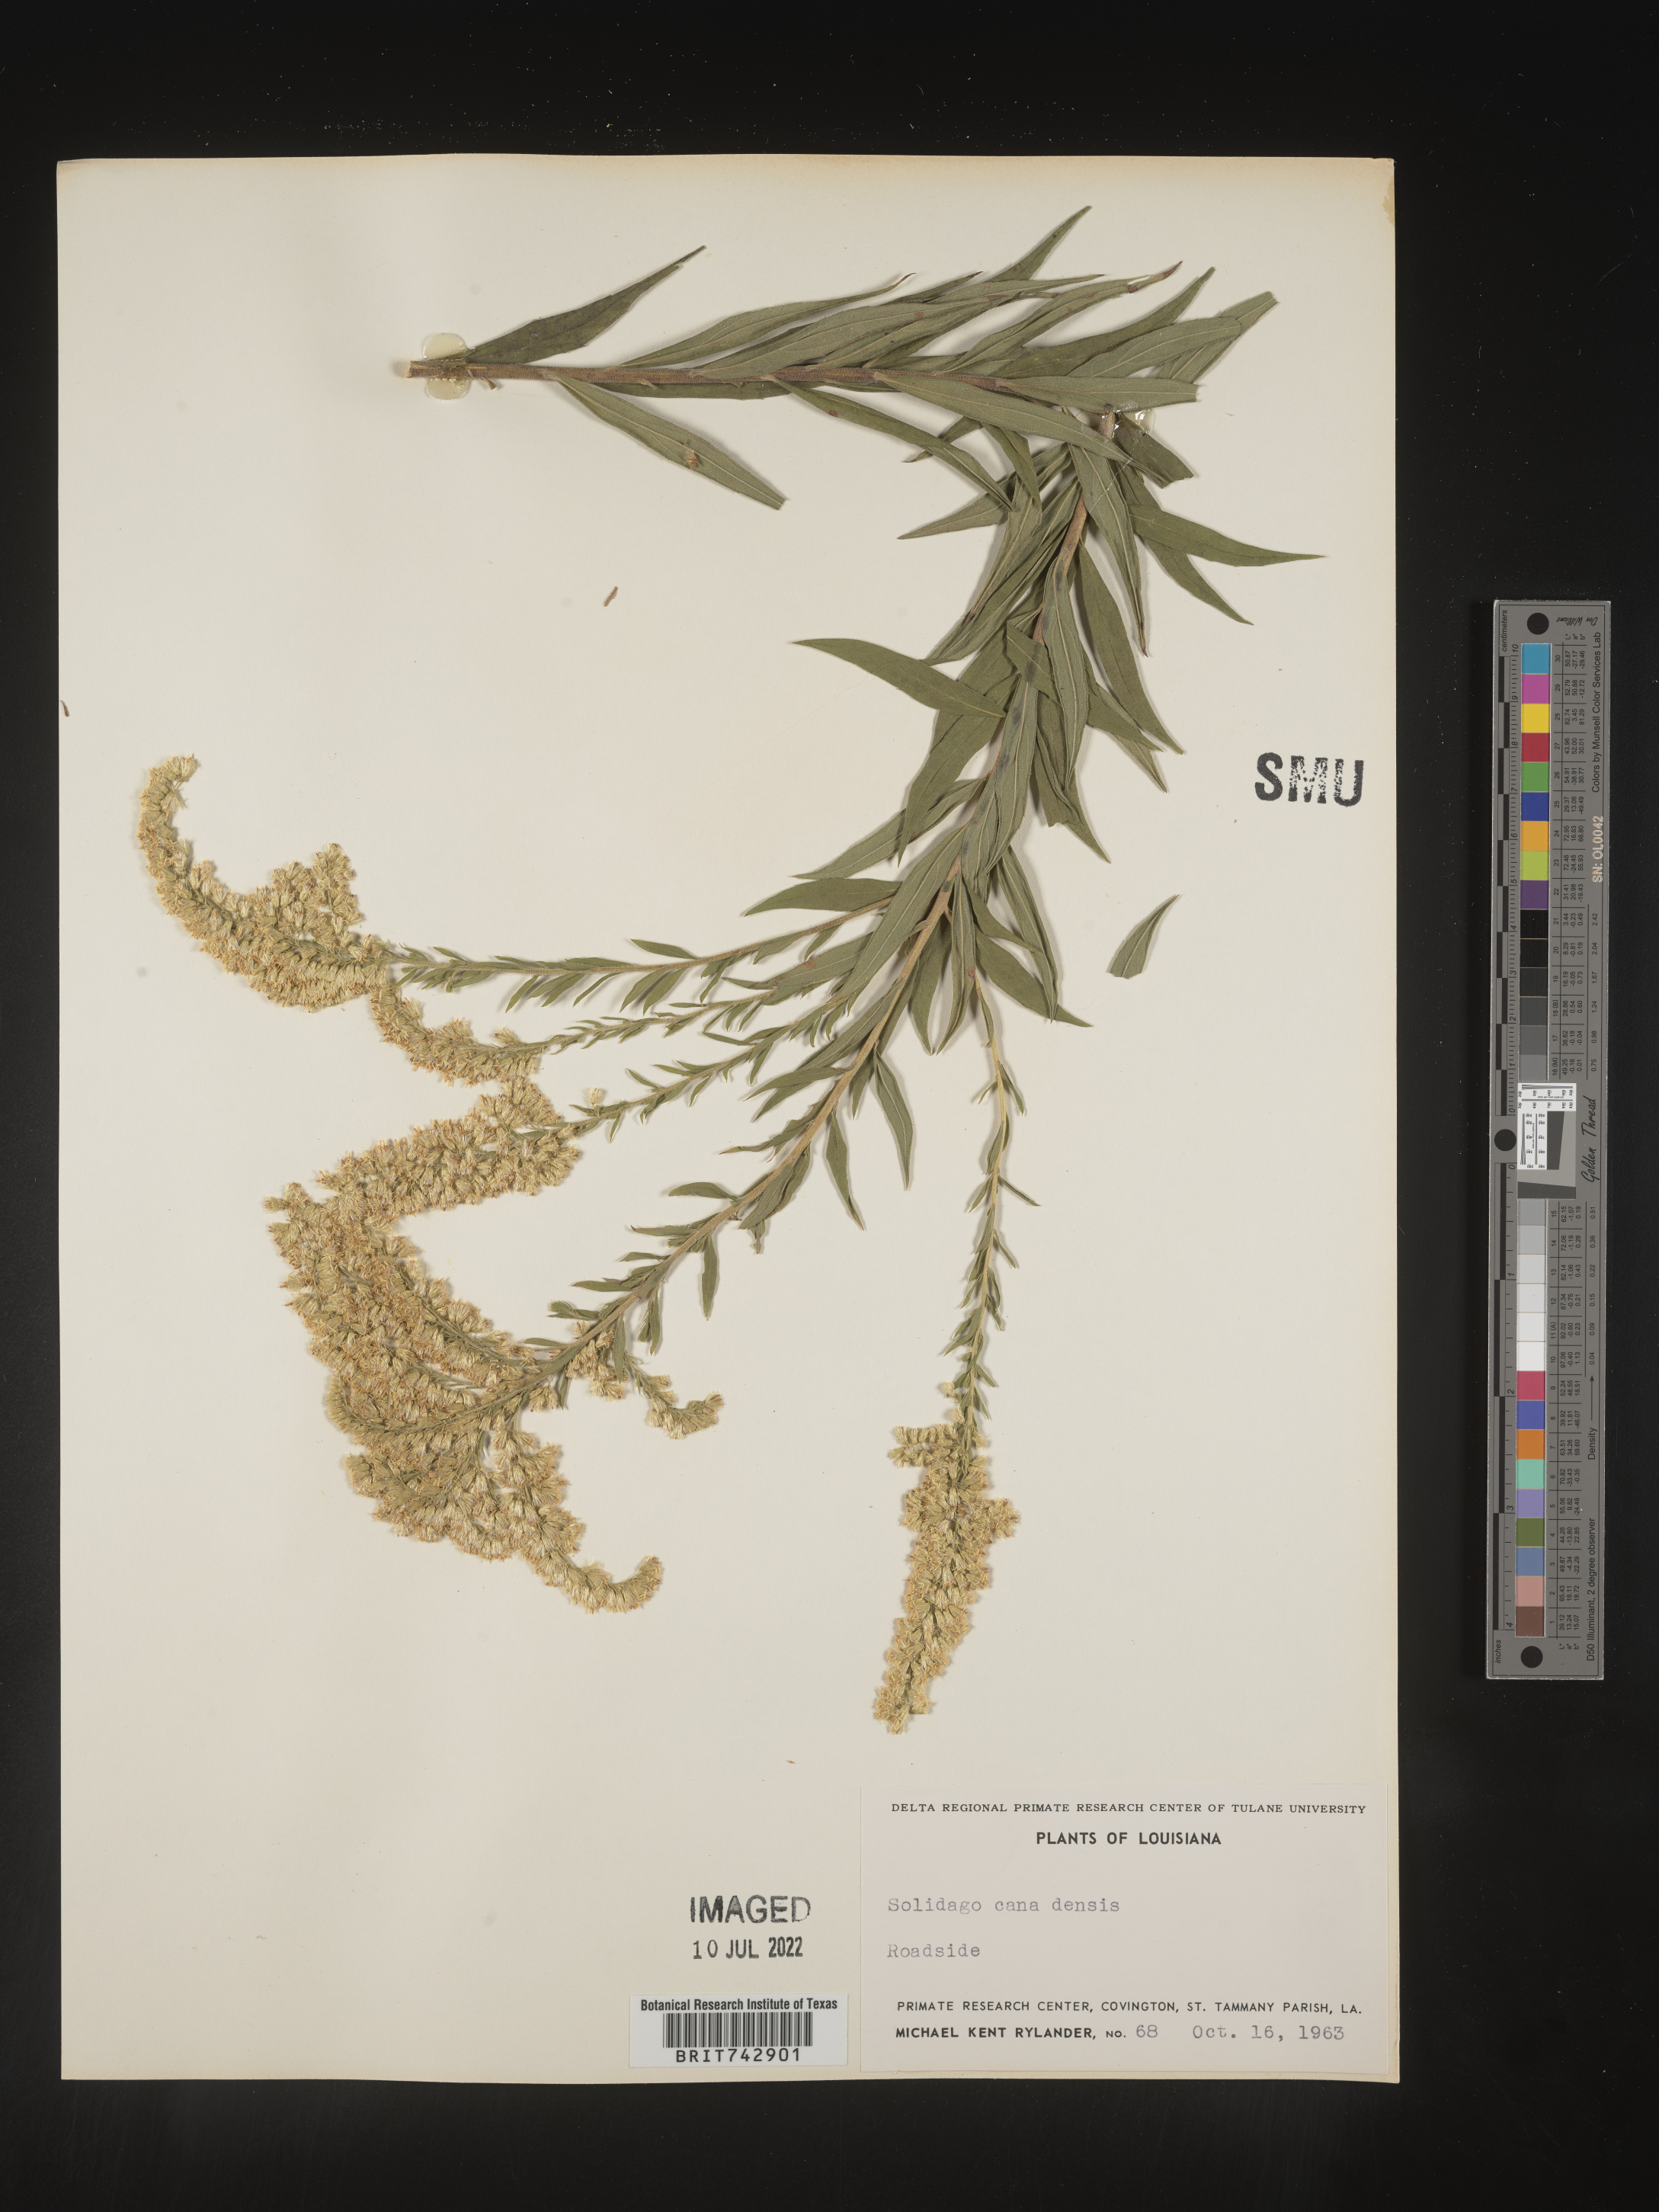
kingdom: Plantae
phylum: Tracheophyta
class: Magnoliopsida
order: Asterales
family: Asteraceae
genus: Solidago
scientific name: Solidago altissima
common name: Late goldenrod
